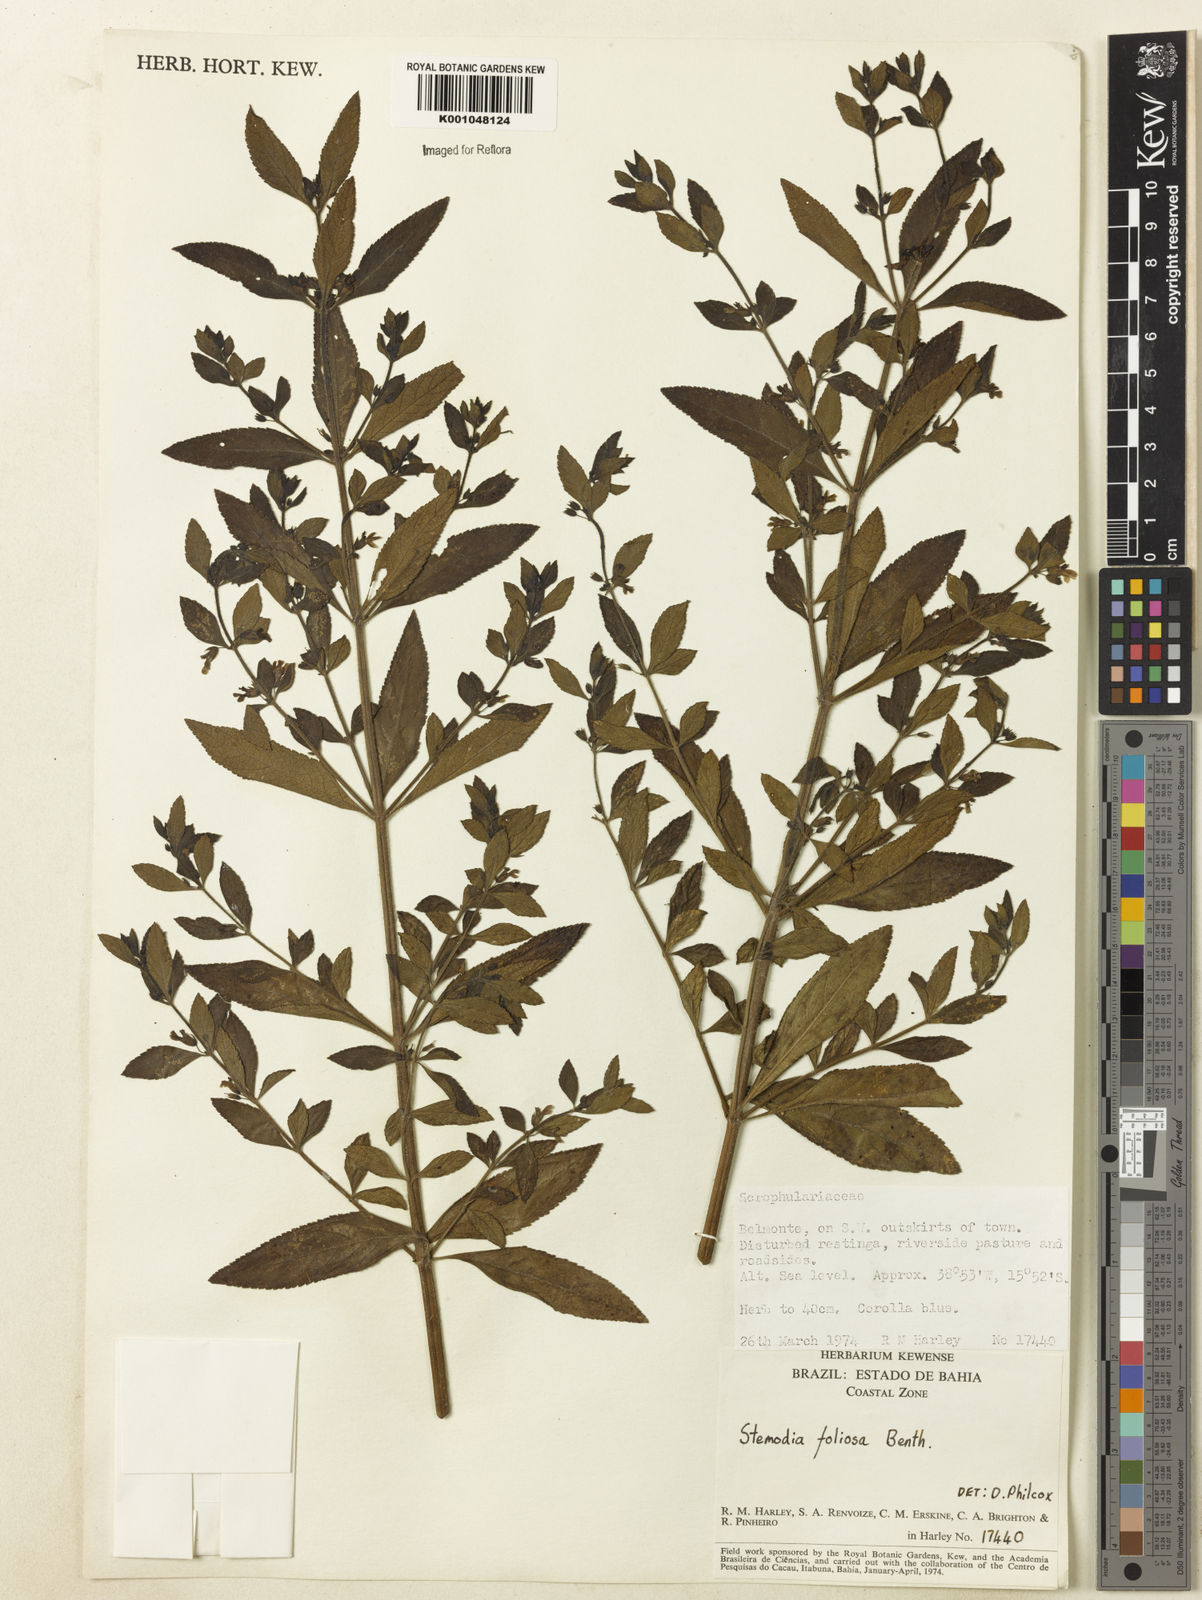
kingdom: Plantae
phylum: Tracheophyta
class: Magnoliopsida
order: Lamiales
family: Plantaginaceae
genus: Stemodia
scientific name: Stemodia foliosa
